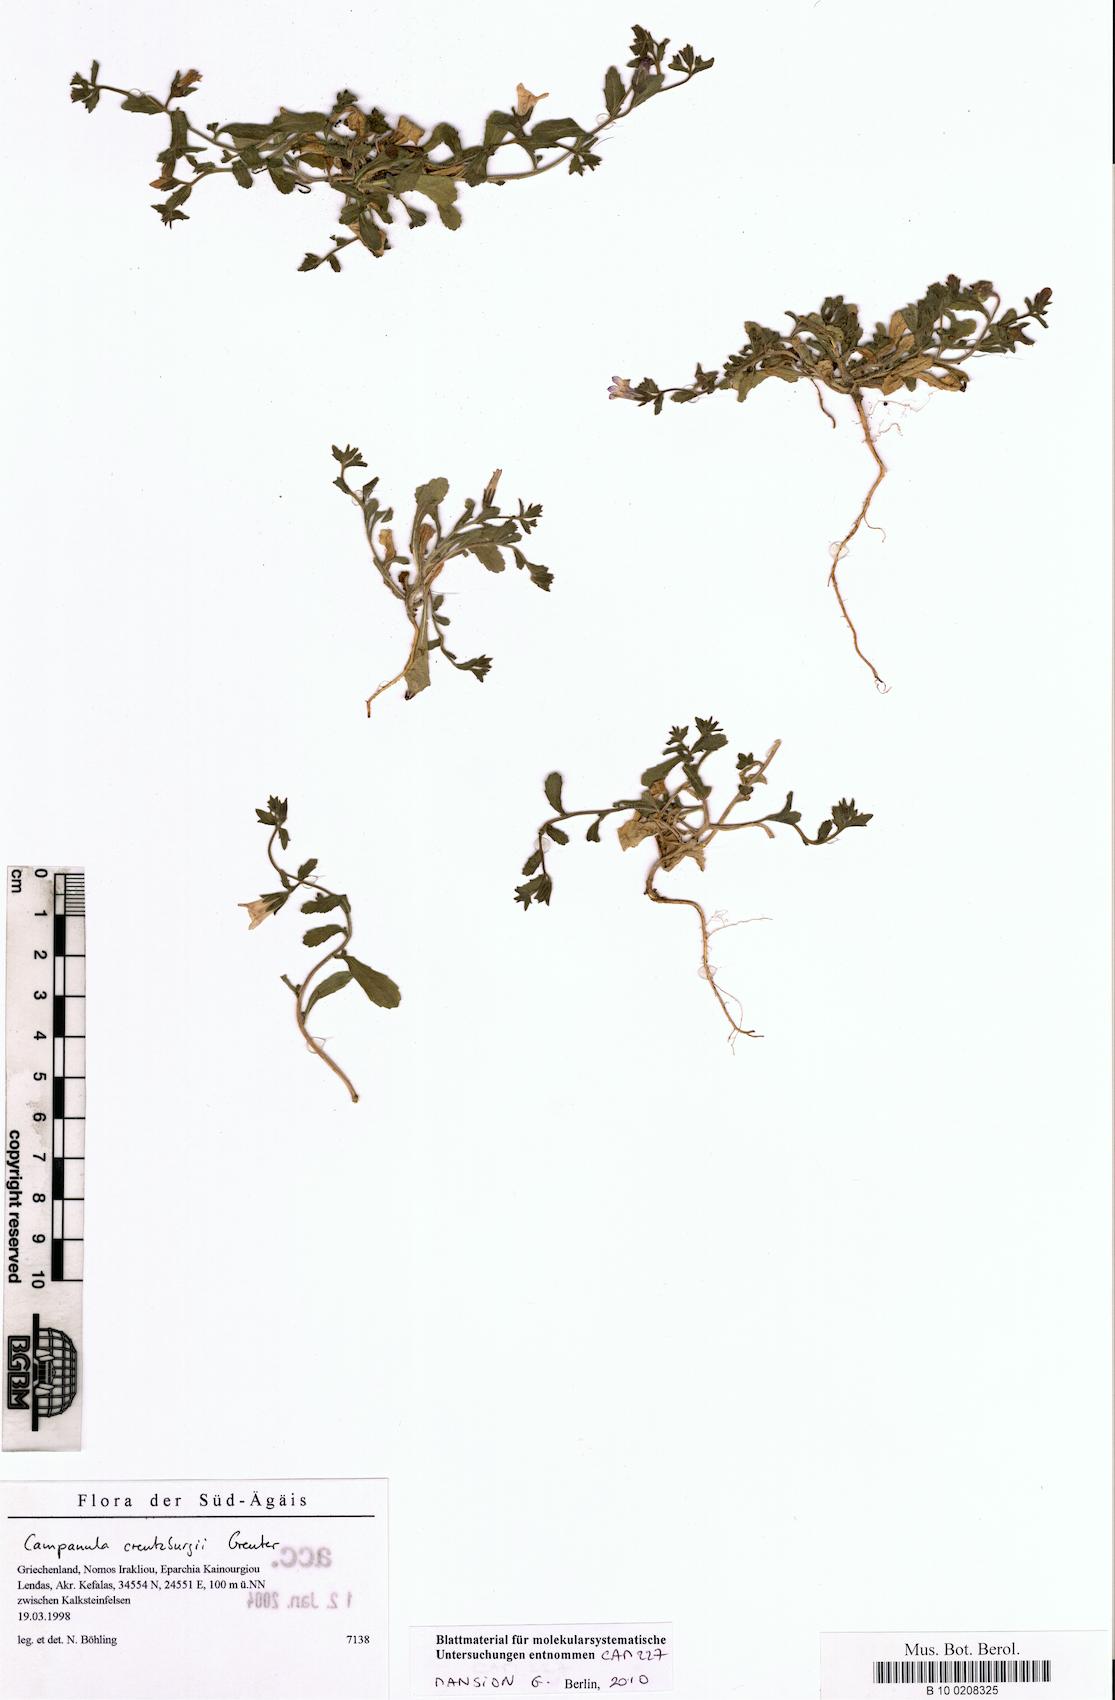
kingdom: Plantae
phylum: Tracheophyta
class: Magnoliopsida
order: Asterales
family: Campanulaceae
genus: Campanula
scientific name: Campanula creutzburgii
